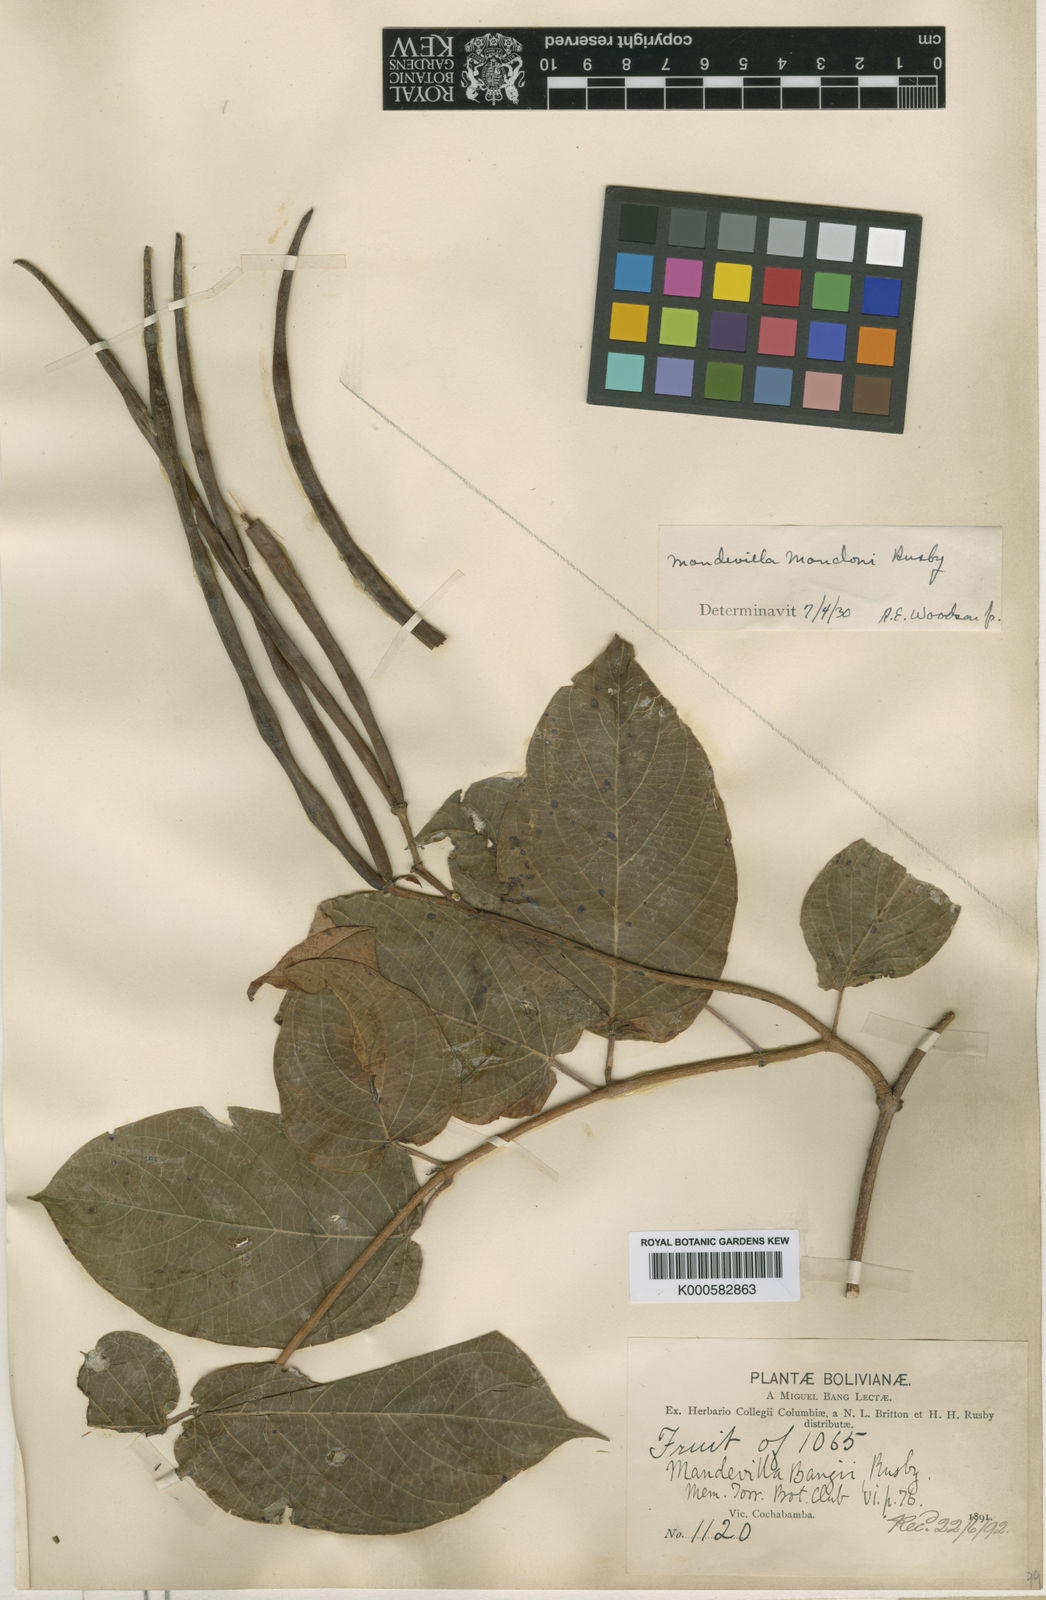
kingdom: Plantae
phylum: Tracheophyta
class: Magnoliopsida
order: Gentianales
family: Apocynaceae
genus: Mandevilla
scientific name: Mandevilla laxa
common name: Chilean-jasmine
